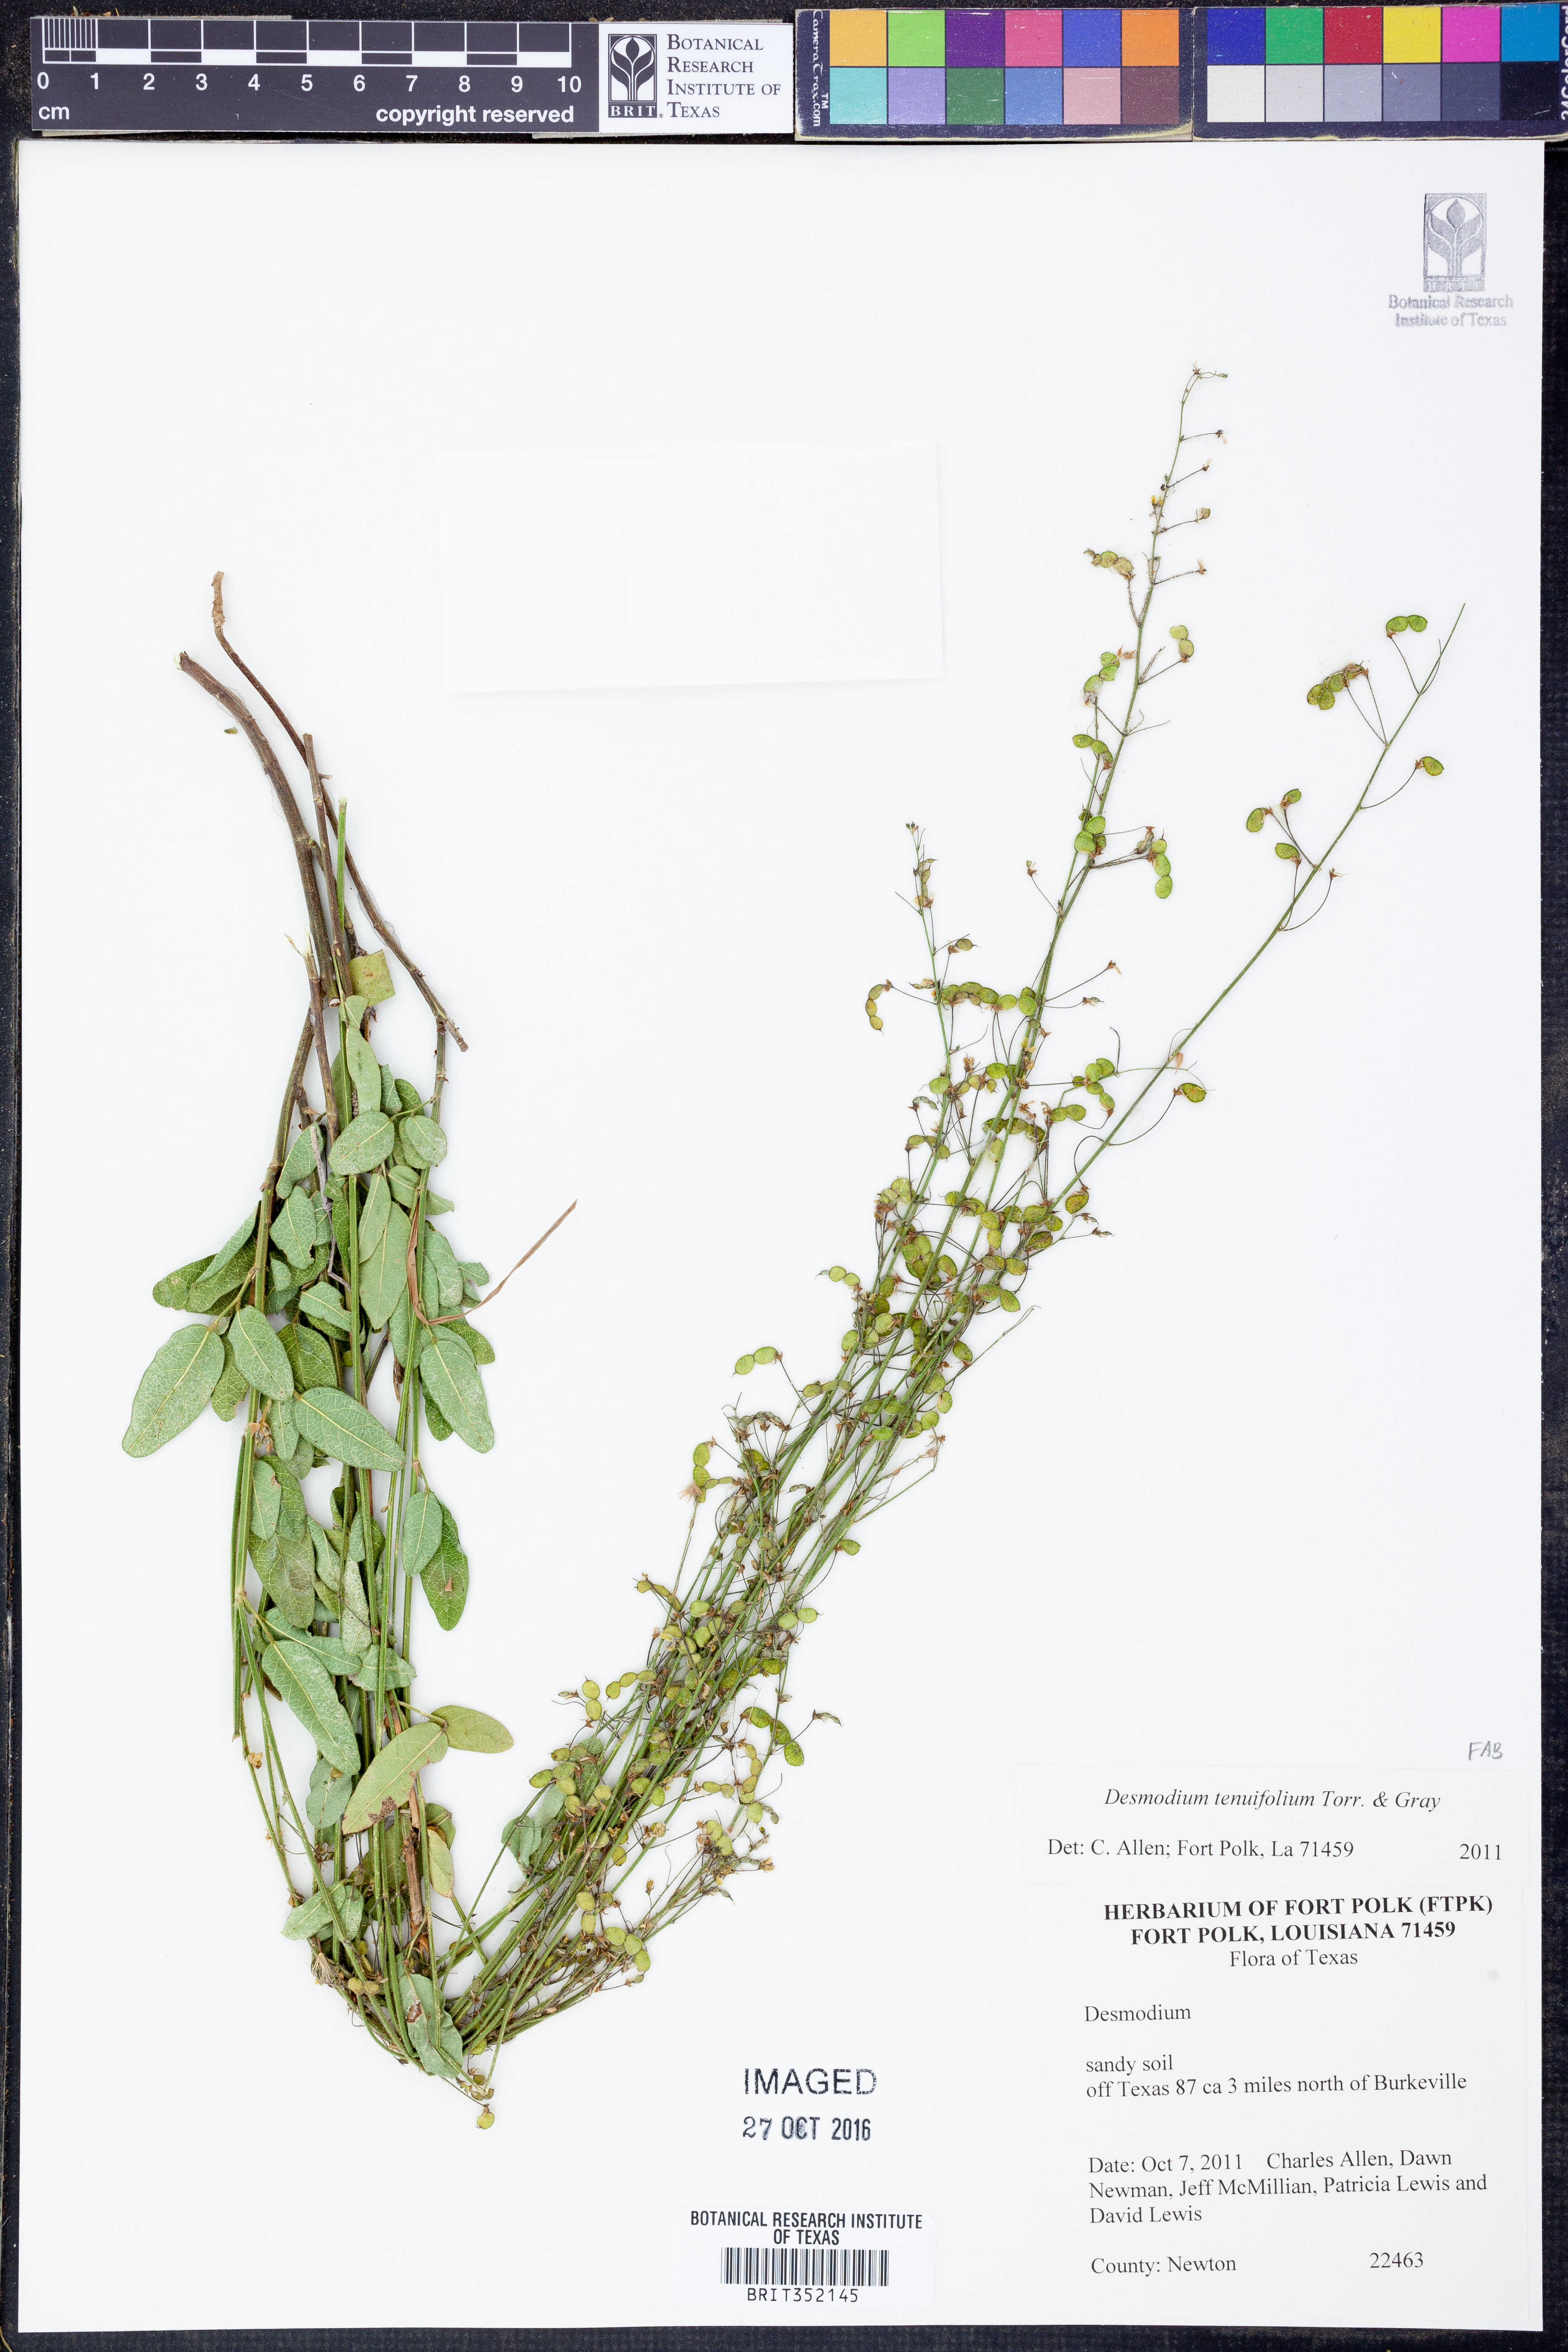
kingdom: Plantae
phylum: Tracheophyta
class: Magnoliopsida
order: Fabales
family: Fabaceae
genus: Desmodium
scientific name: Desmodium tenuifolium
